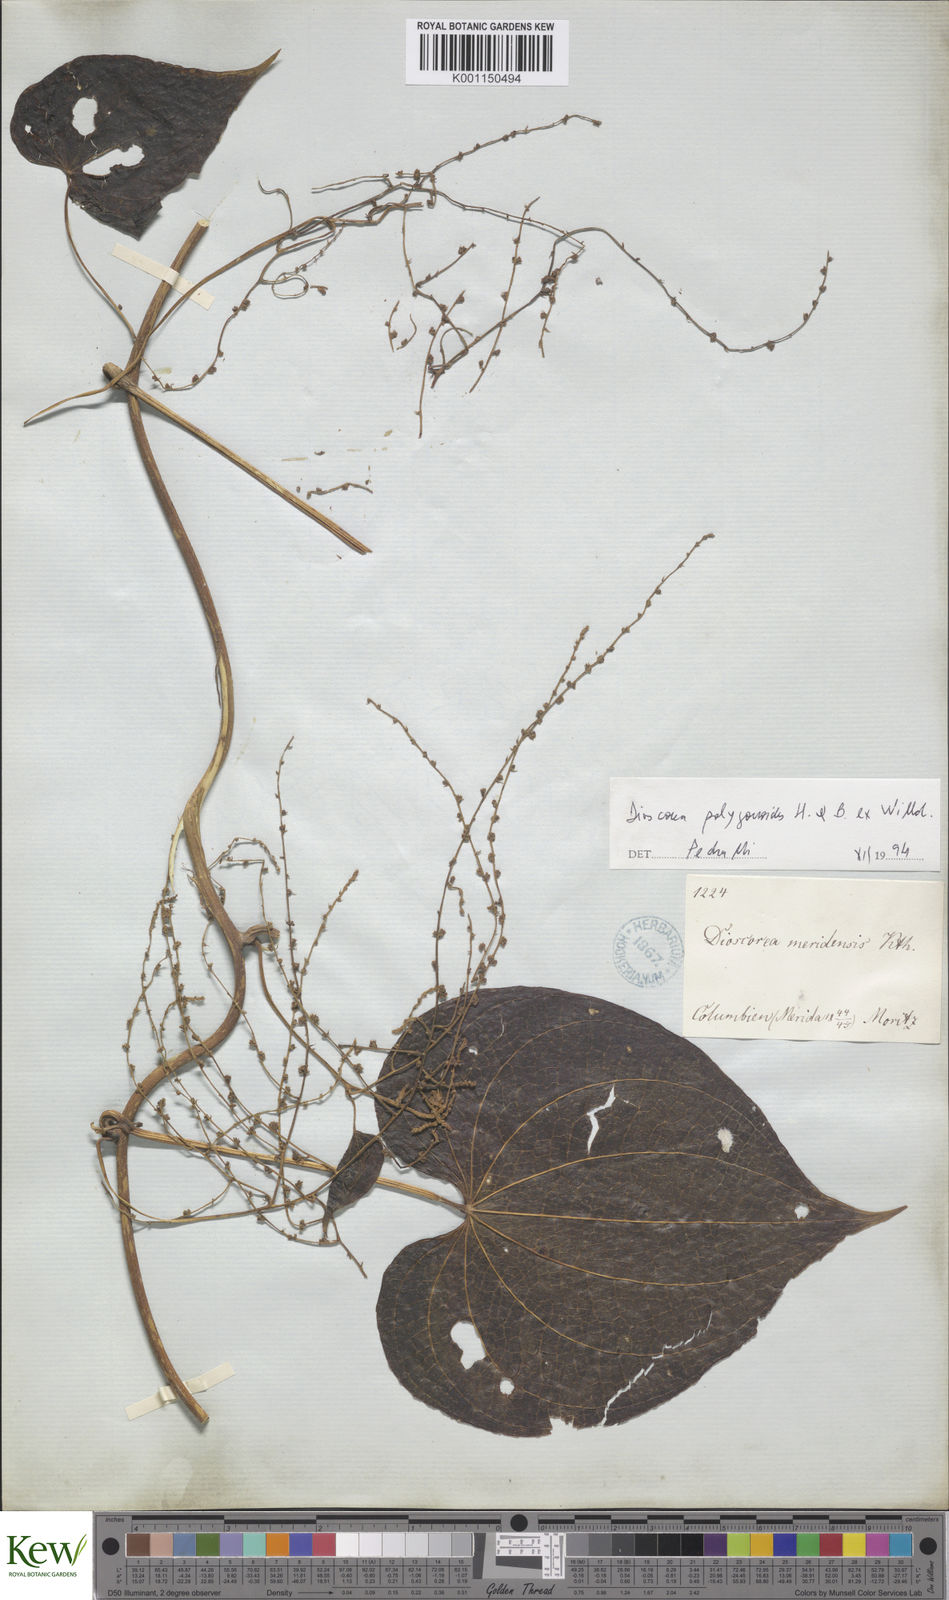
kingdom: Plantae
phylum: Tracheophyta
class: Liliopsida
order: Dioscoreales
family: Dioscoreaceae
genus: Dioscorea
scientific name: Dioscorea meridensis
